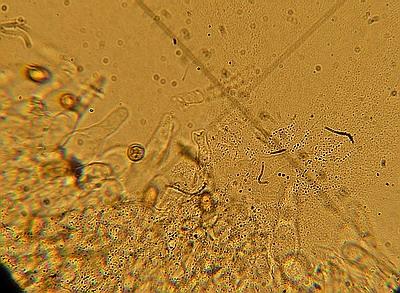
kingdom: Fungi
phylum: Basidiomycota
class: Agaricomycetes
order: Agaricales
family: Hymenogastraceae
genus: Galerina
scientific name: Galerina marginata
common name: randbæltet hjelmhat
